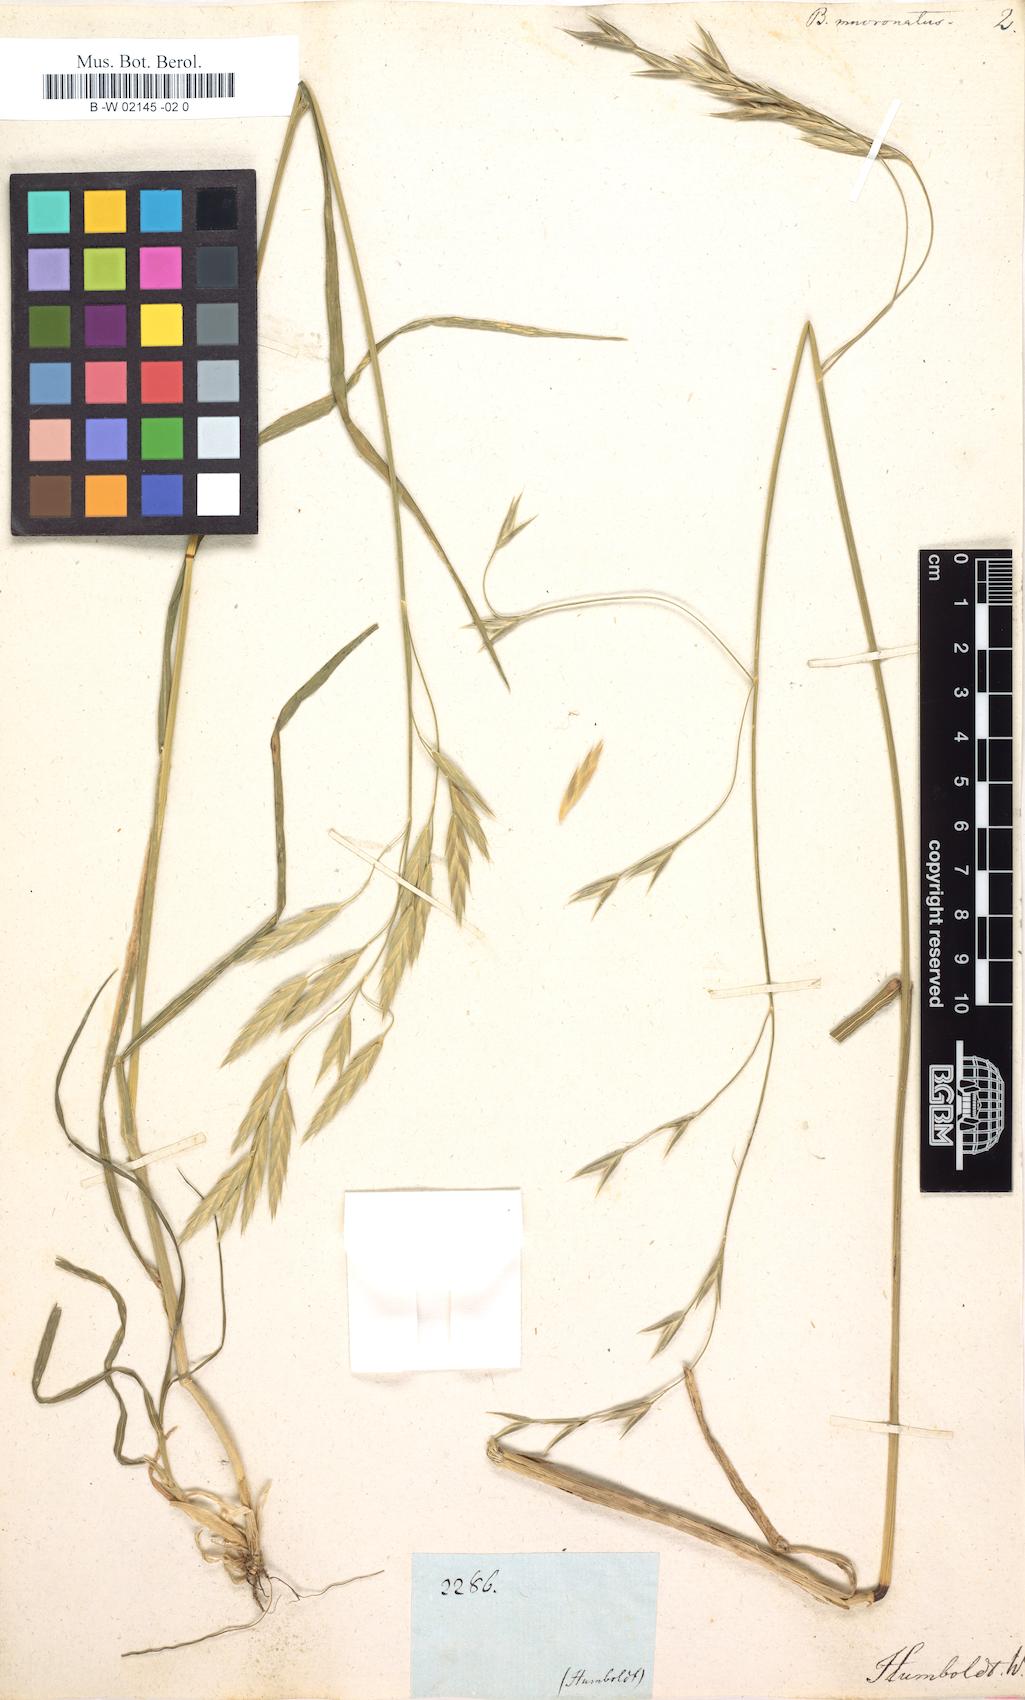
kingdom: Plantae
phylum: Tracheophyta
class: Liliopsida
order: Poales
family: Poaceae
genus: Bromus
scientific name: Bromus catharticus
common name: Rescuegrass
